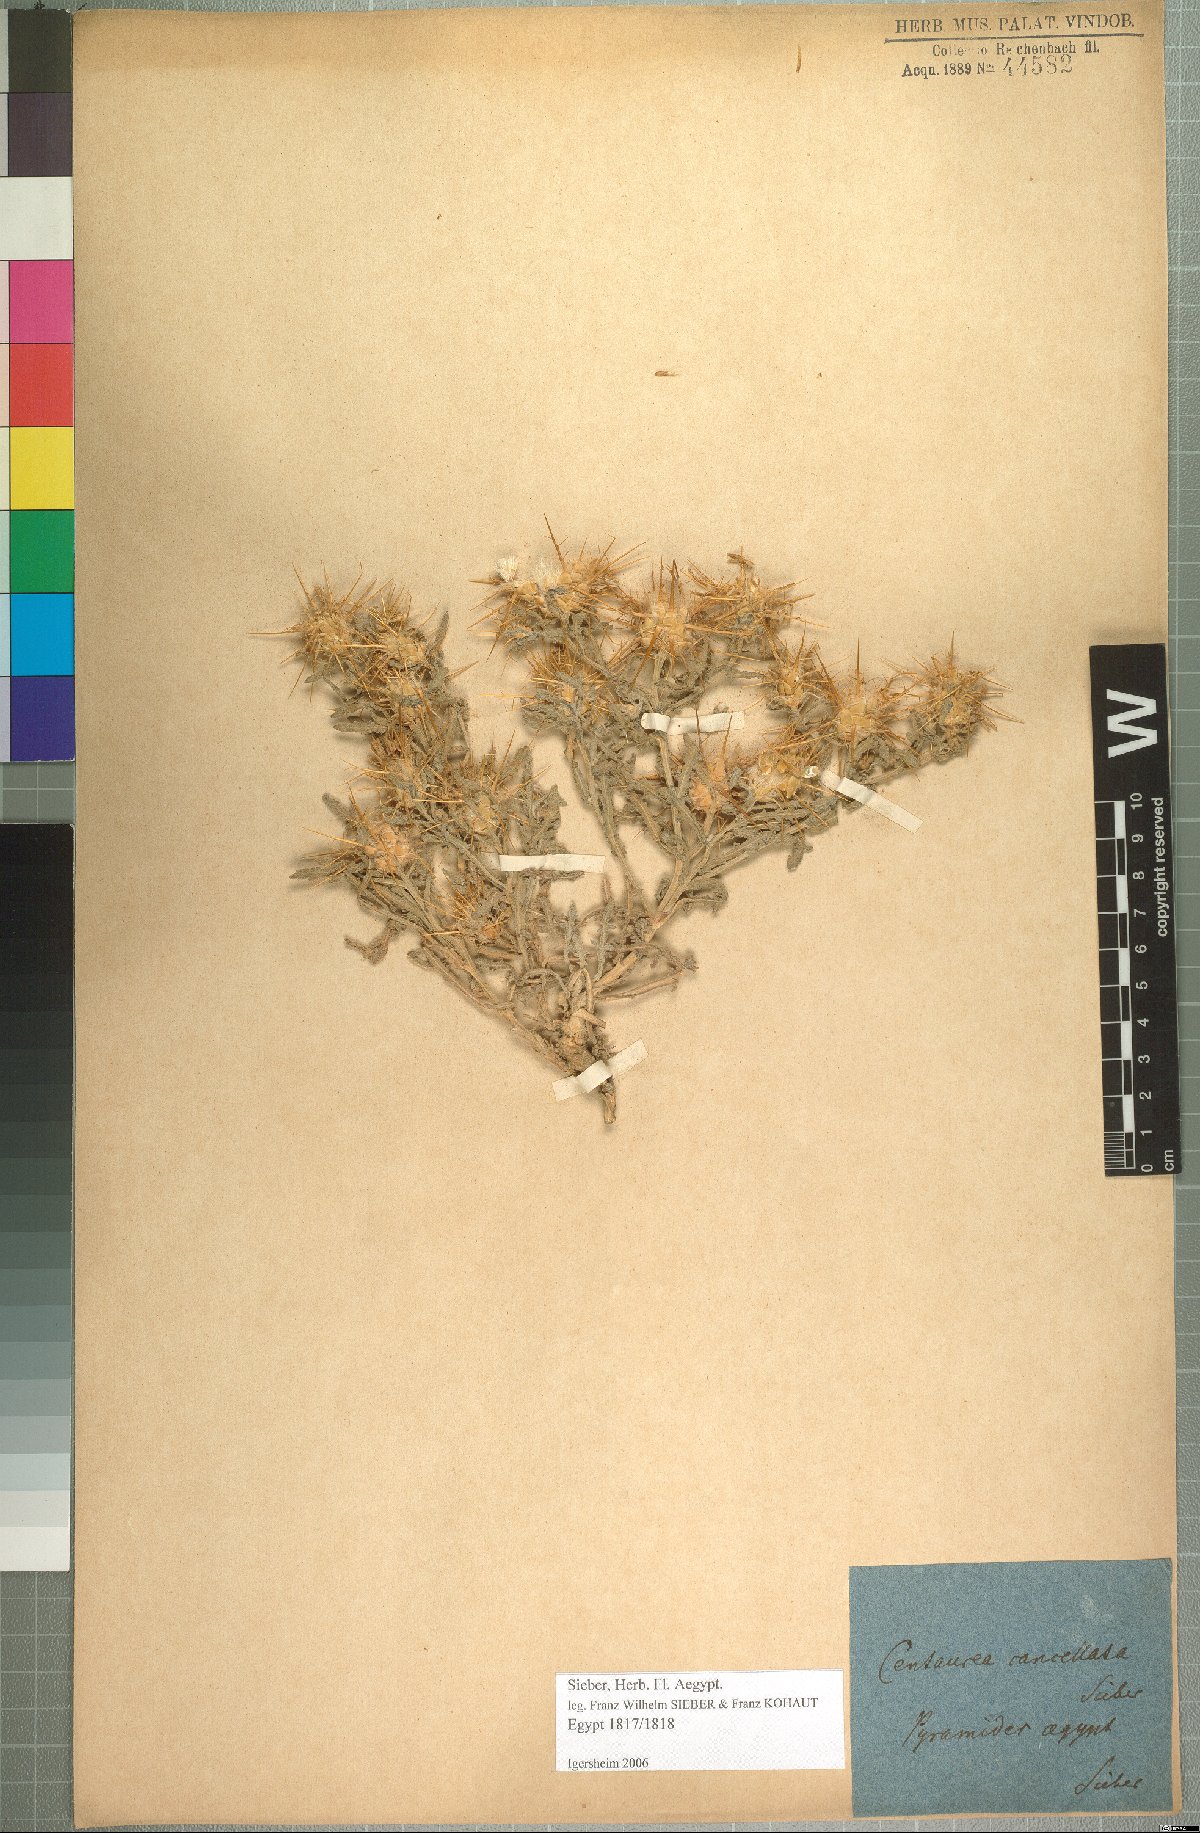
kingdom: Plantae
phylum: Tracheophyta
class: Magnoliopsida
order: Asterales
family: Asteraceae
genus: Centaurea
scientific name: Centaurea aegyptiaca
